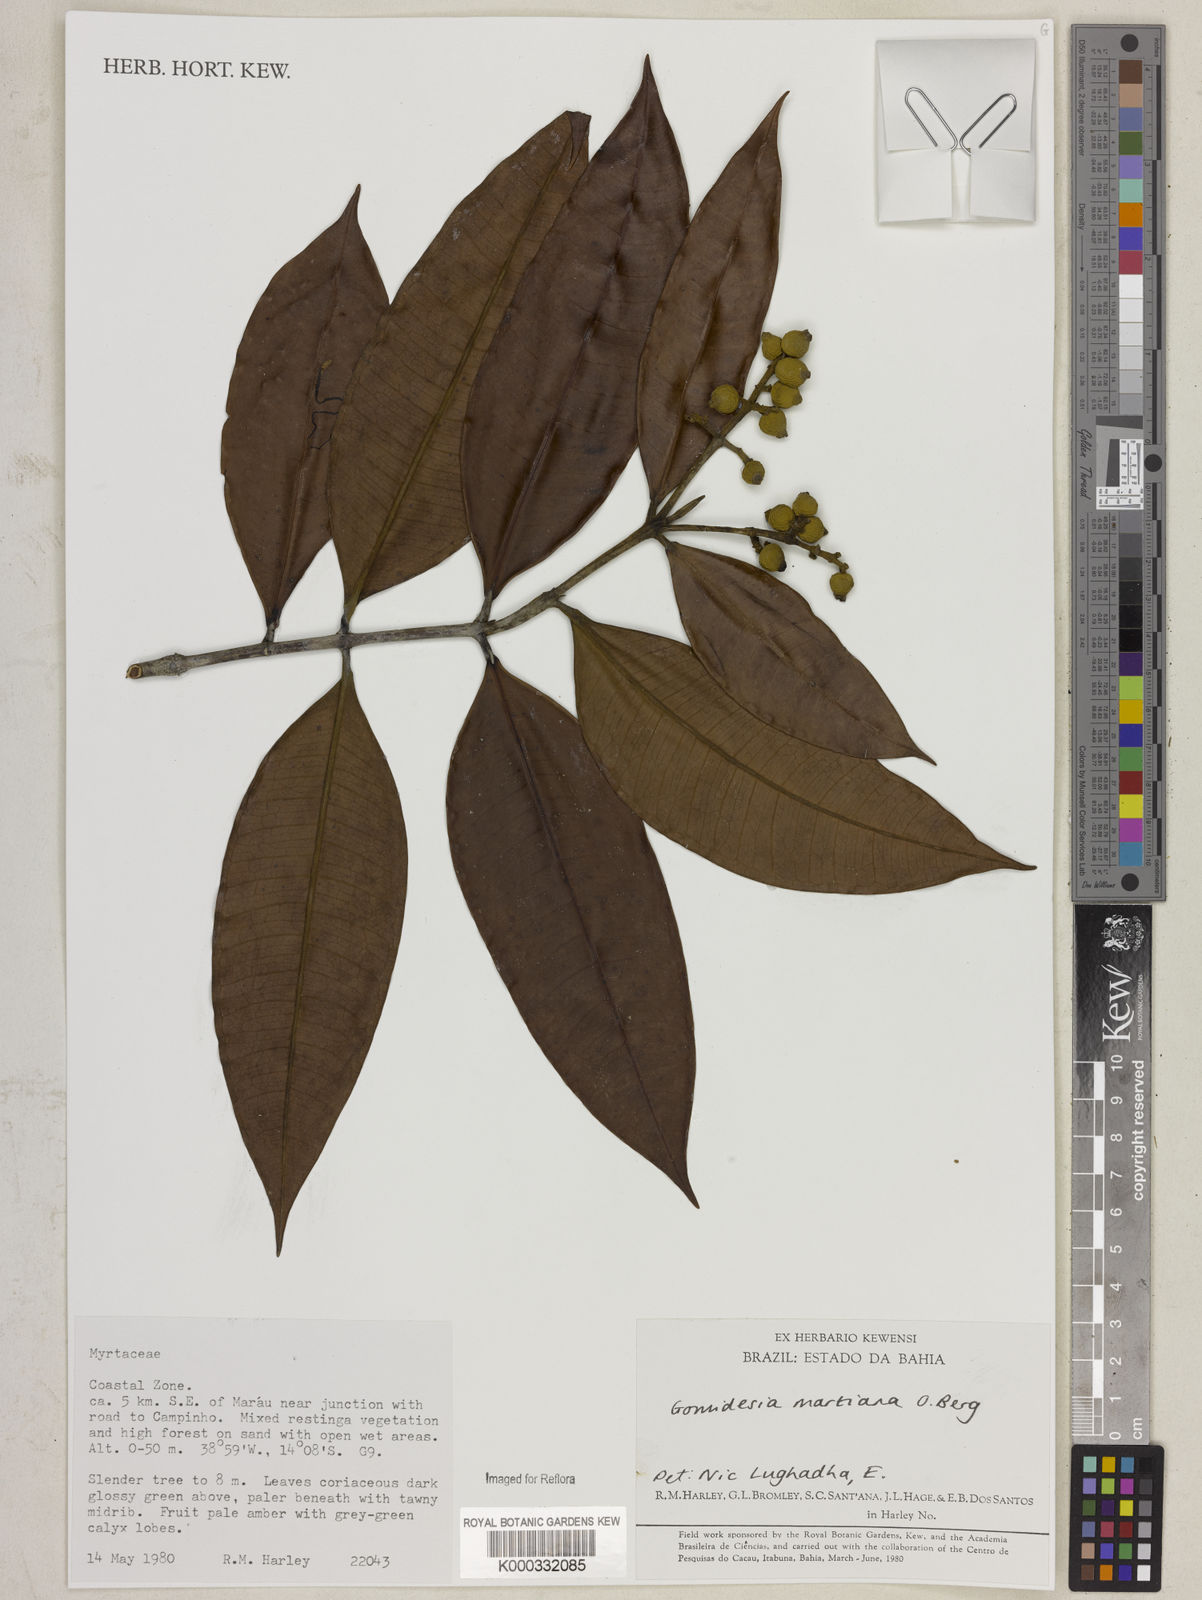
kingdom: Plantae
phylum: Tracheophyta
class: Magnoliopsida
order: Myrtales
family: Myrtaceae
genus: Myrcia
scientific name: Myrcia vittoriana
